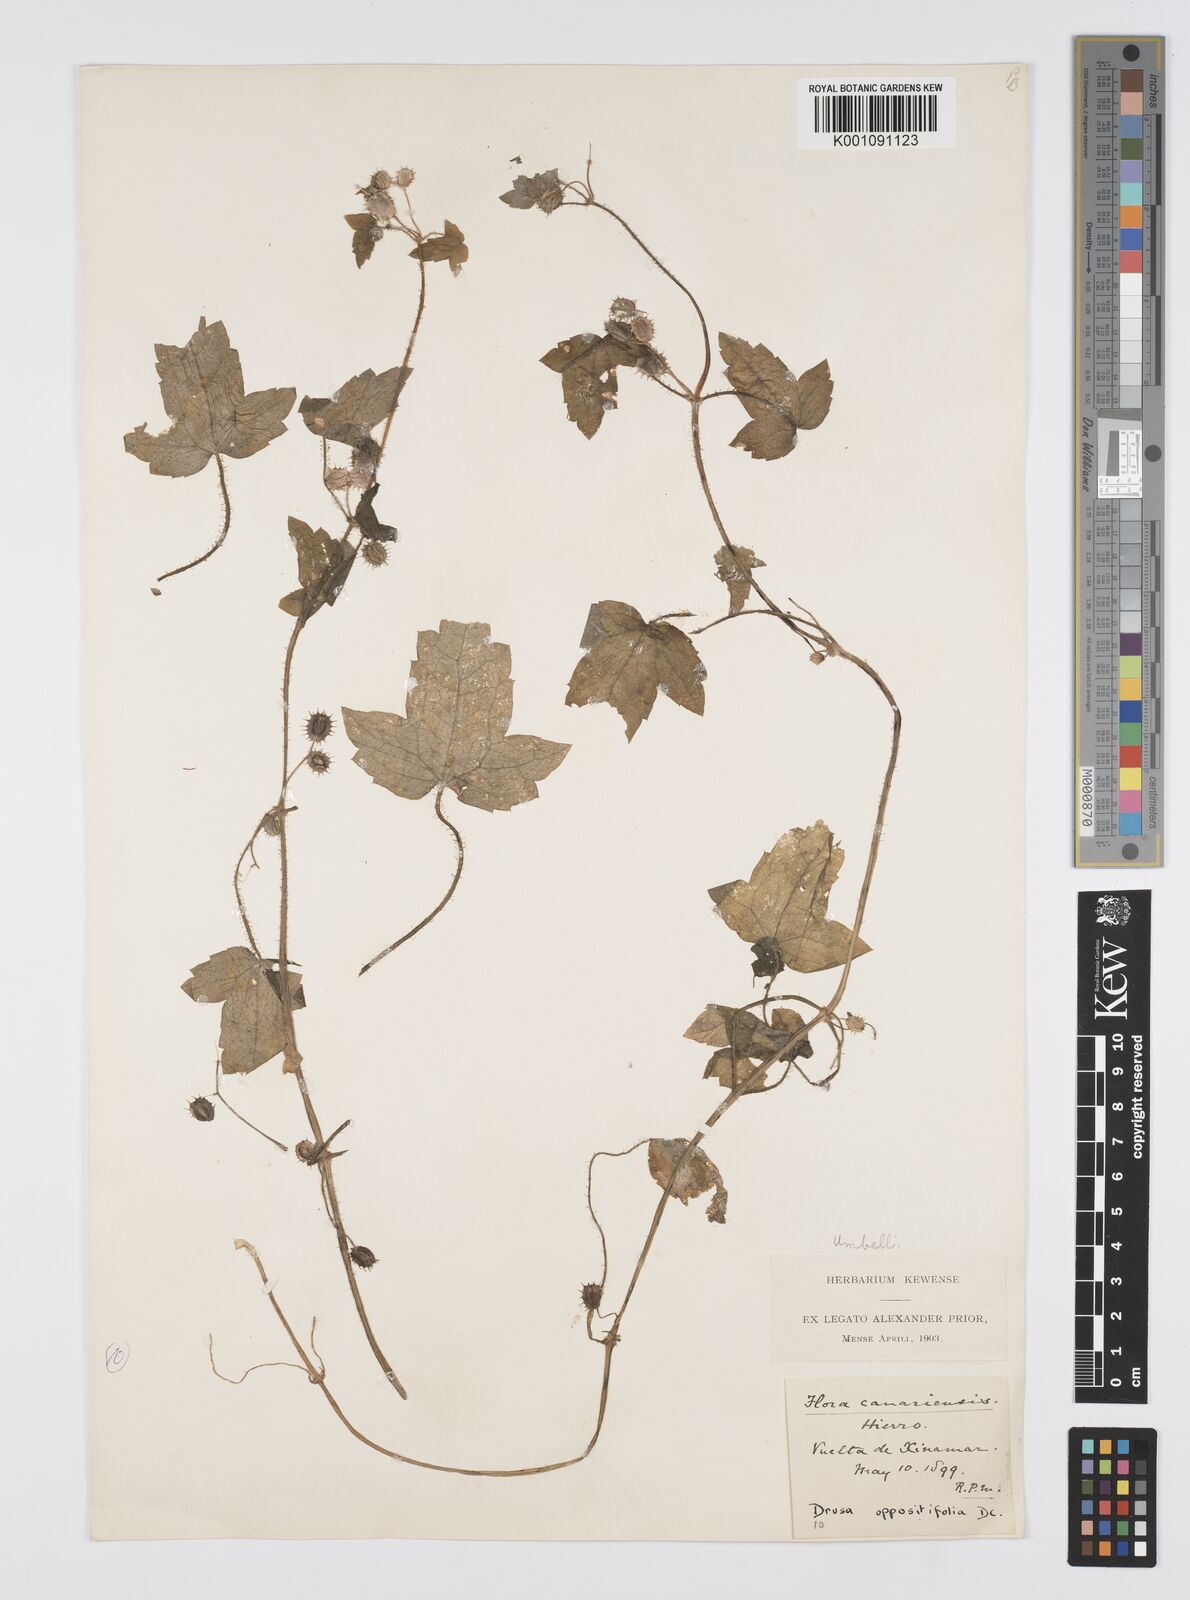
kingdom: Plantae
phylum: Tracheophyta
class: Magnoliopsida
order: Apiales
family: Apiaceae
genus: Drusa
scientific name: Drusa glandulosa
